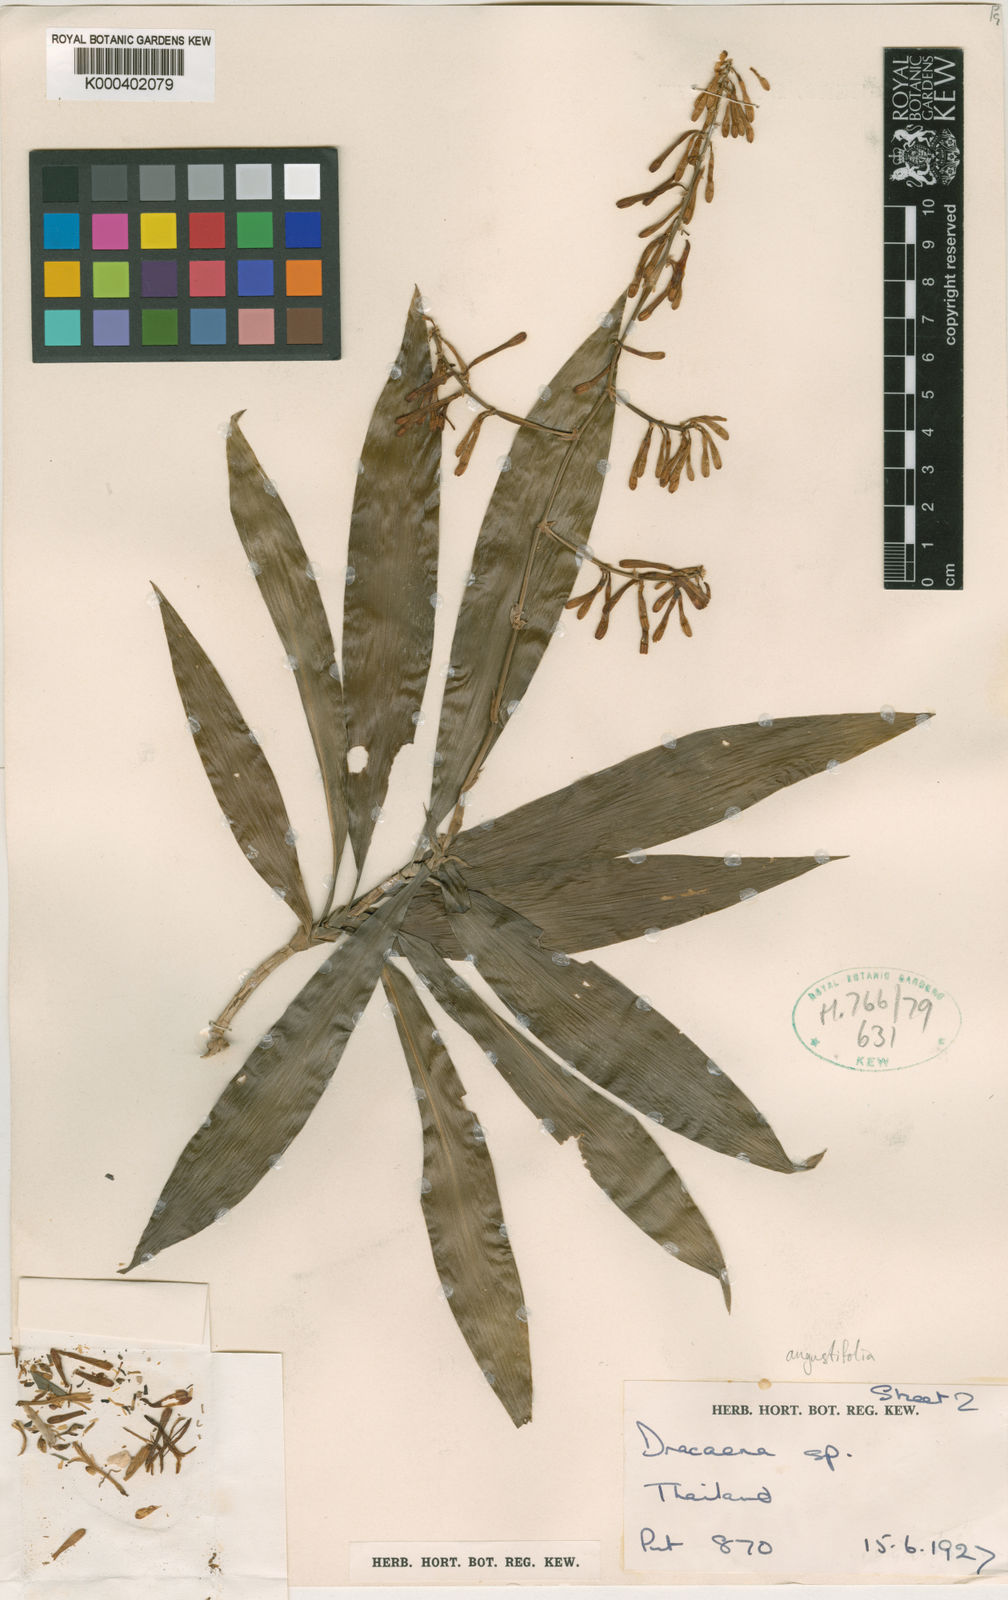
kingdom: Plantae
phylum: Tracheophyta
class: Liliopsida
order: Asparagales
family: Asparagaceae
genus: Dracaena
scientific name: Dracaena angustifolia
